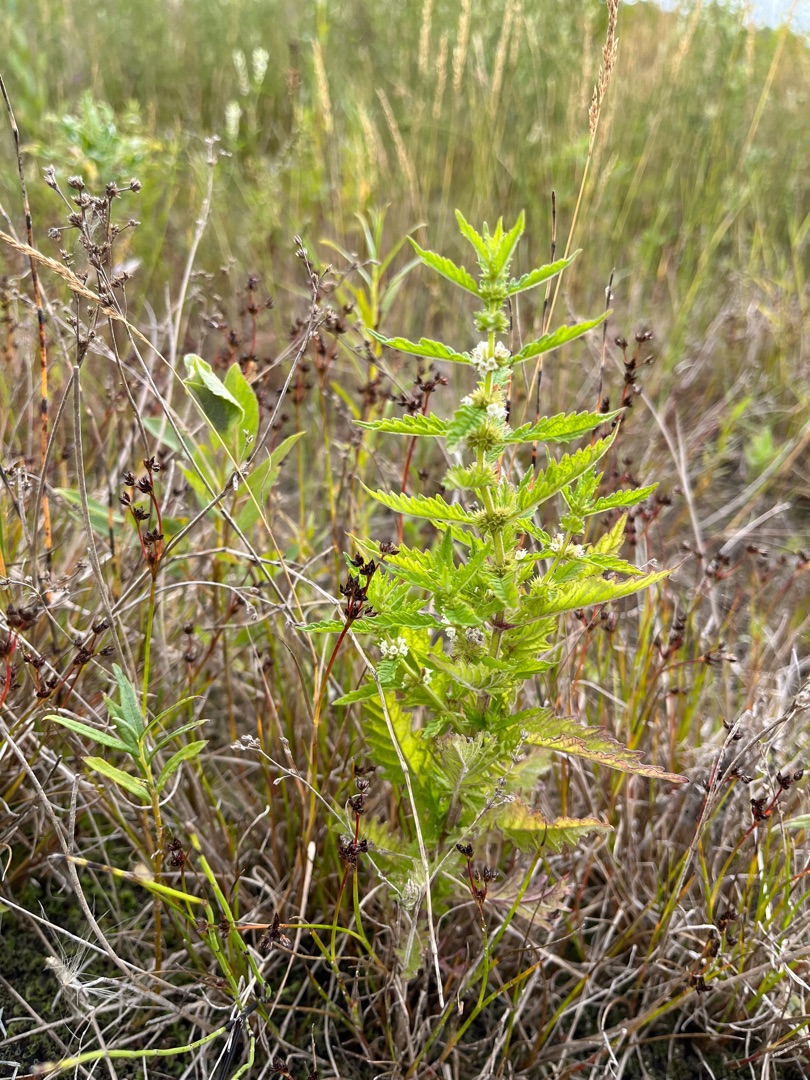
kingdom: Plantae
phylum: Tracheophyta
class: Magnoliopsida
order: Lamiales
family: Lamiaceae
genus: Lycopus
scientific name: Lycopus europaeus
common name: Sværtevæld
